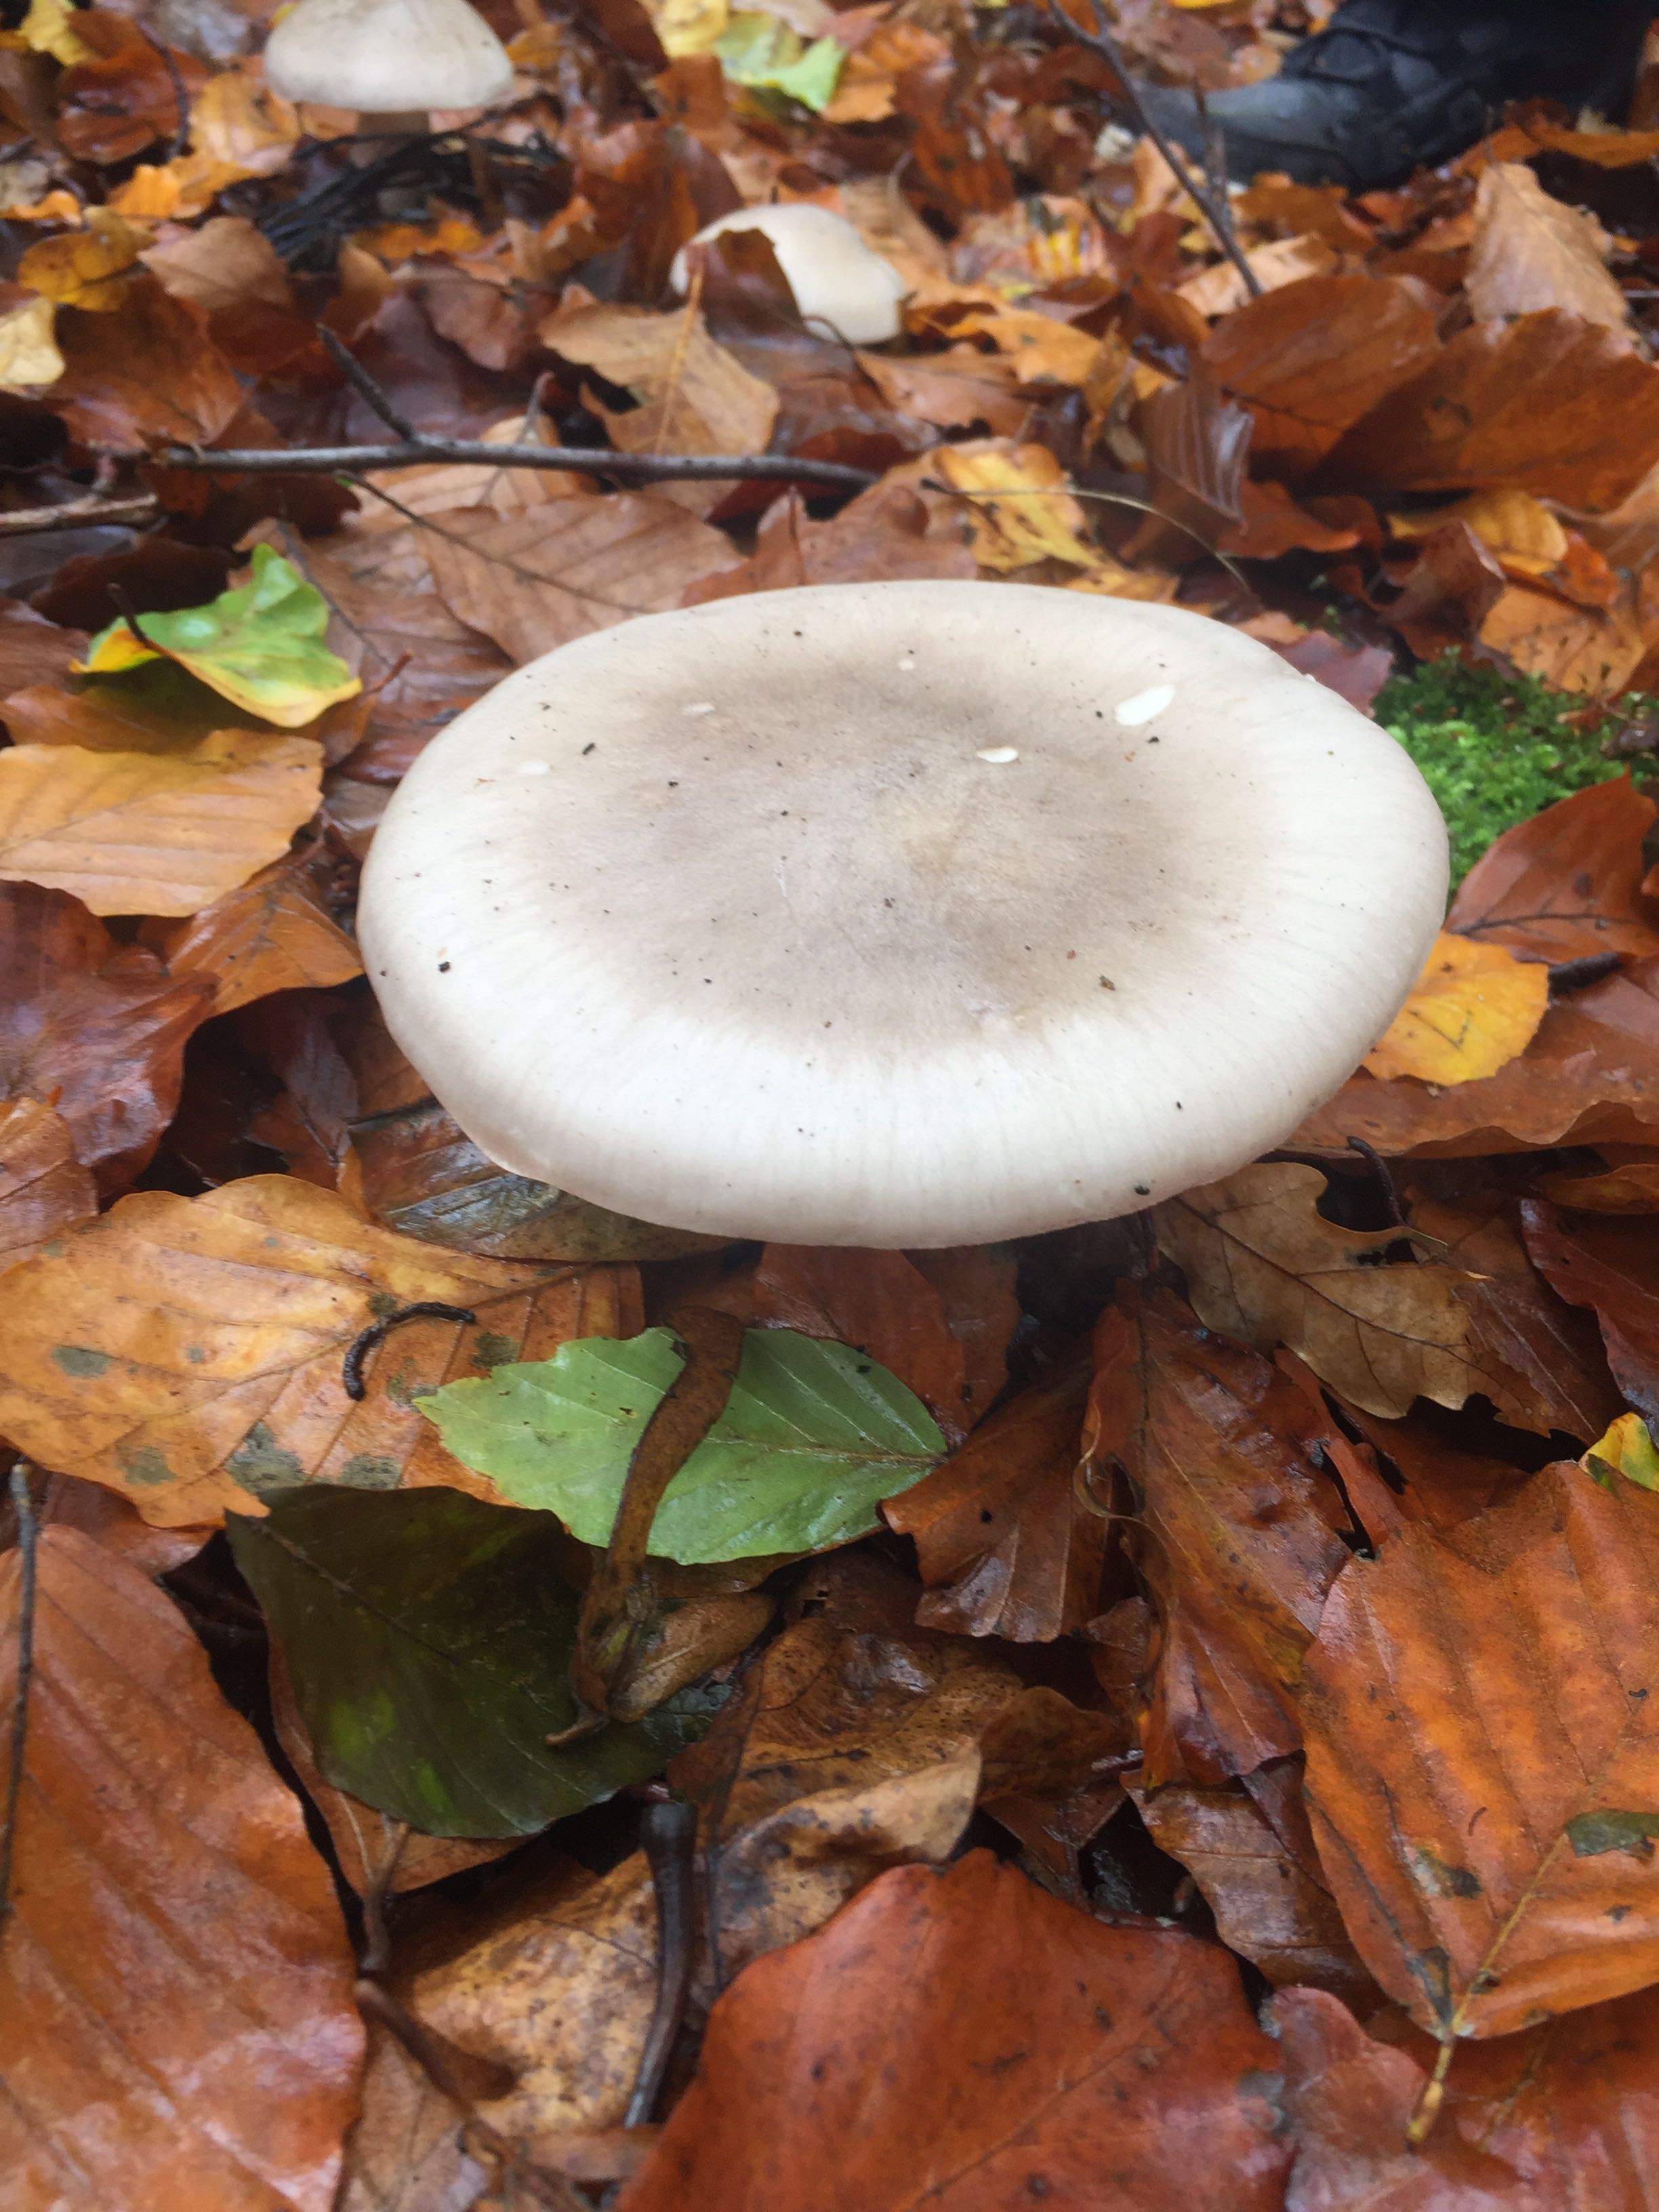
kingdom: Fungi
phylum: Basidiomycota
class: Agaricomycetes
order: Agaricales
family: Tricholomataceae
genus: Clitocybe
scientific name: Clitocybe nebularis
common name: tåge-tragthat
